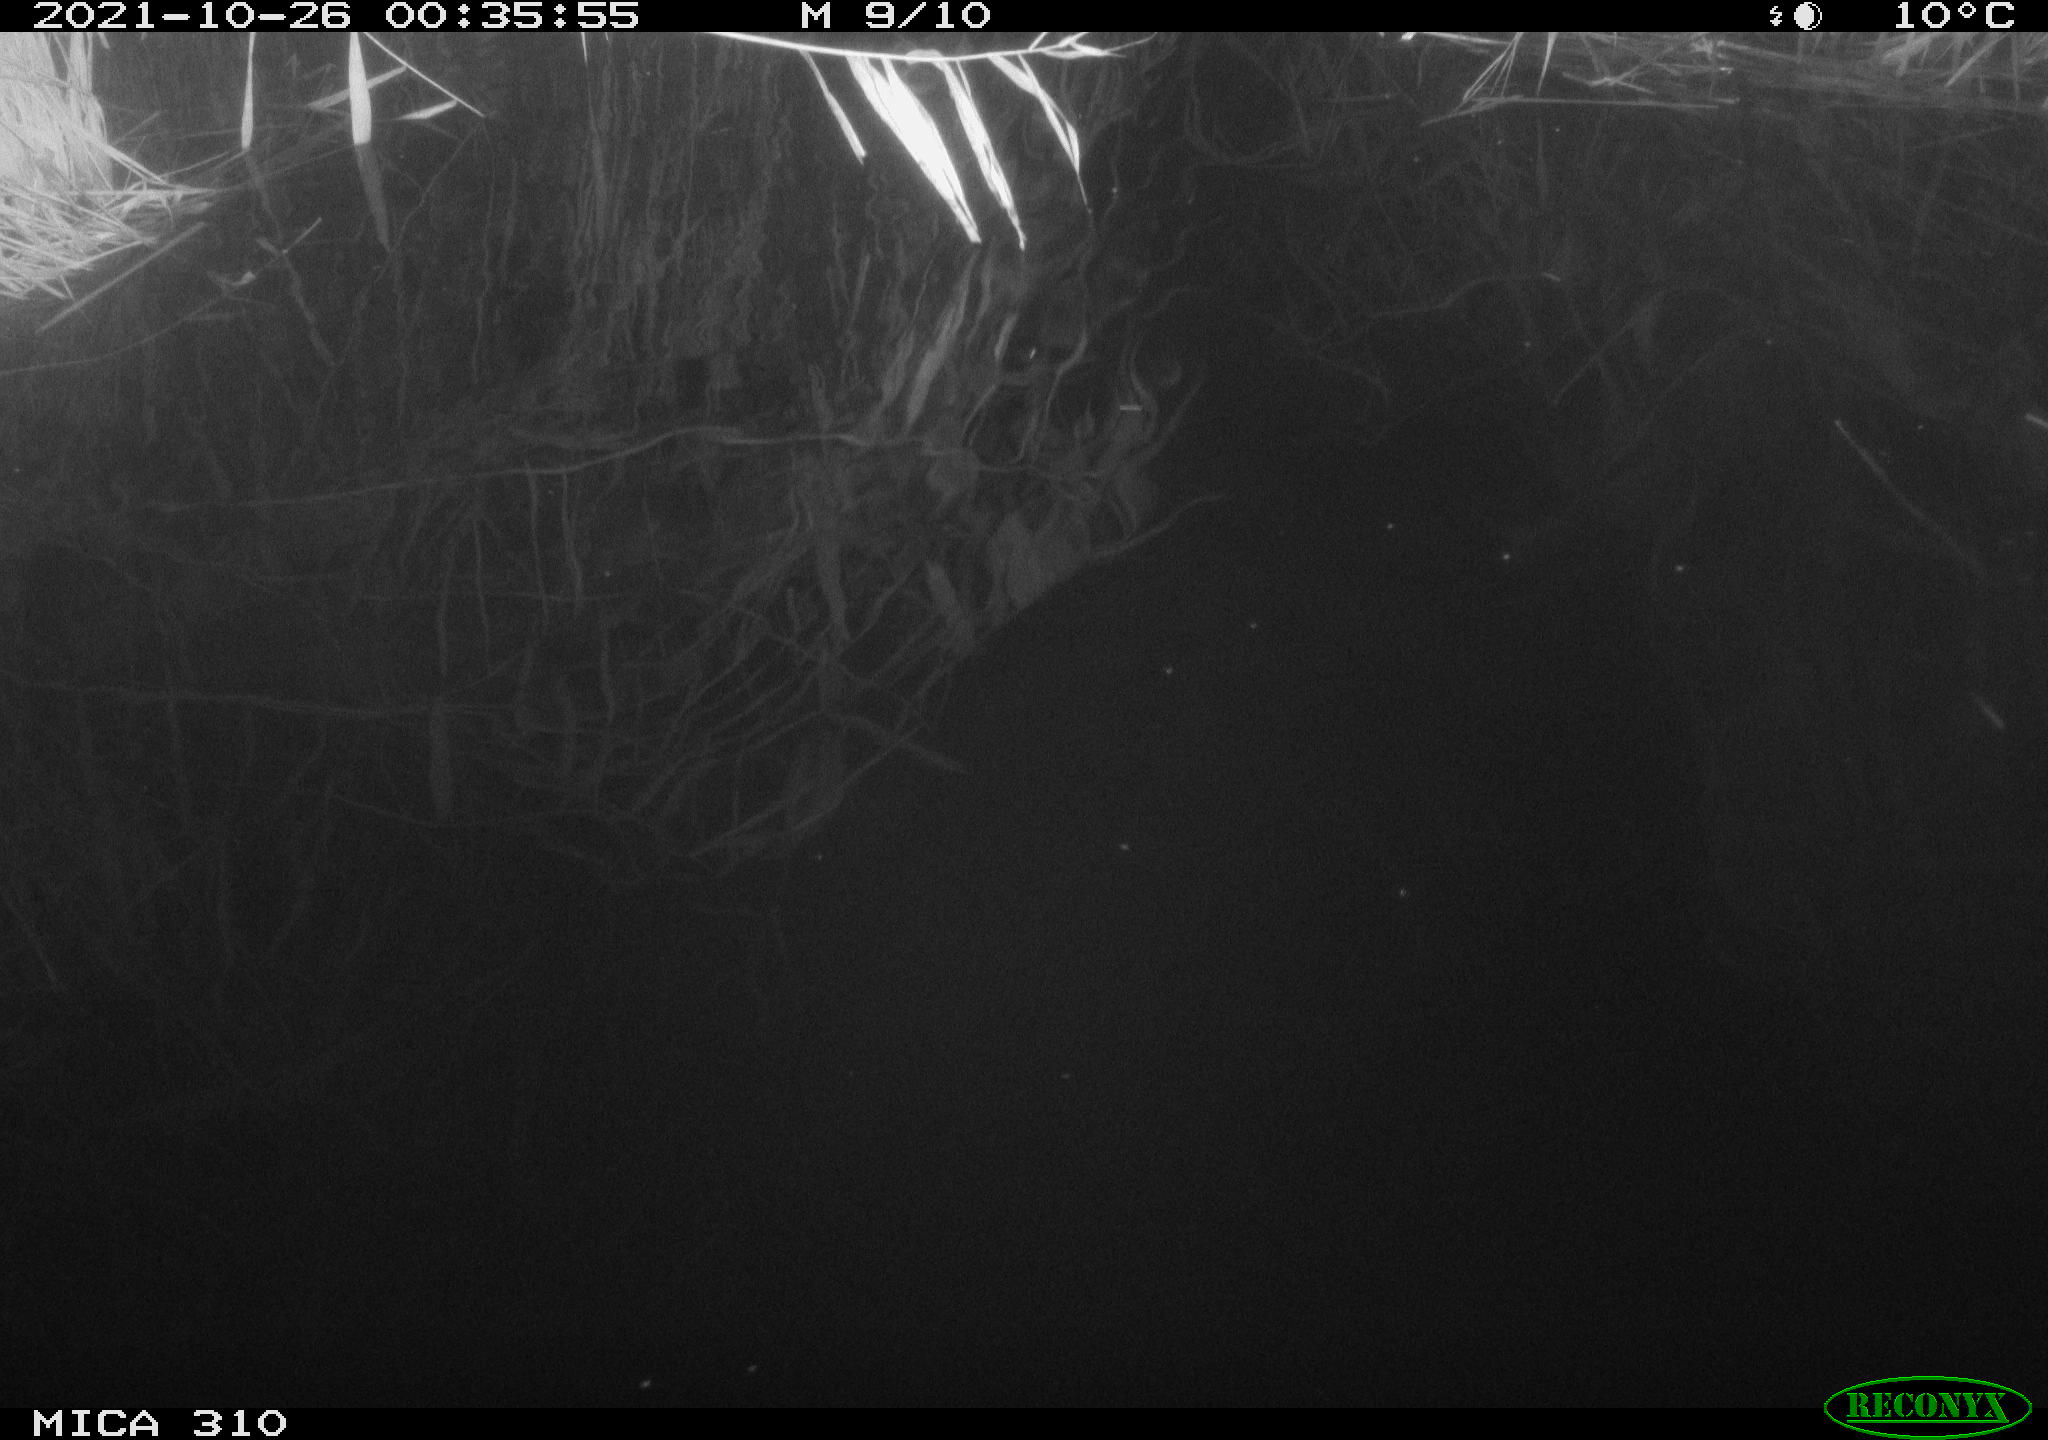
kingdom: Animalia
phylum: Chordata
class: Mammalia
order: Rodentia
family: Muridae
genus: Rattus
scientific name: Rattus norvegicus
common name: Brown rat
